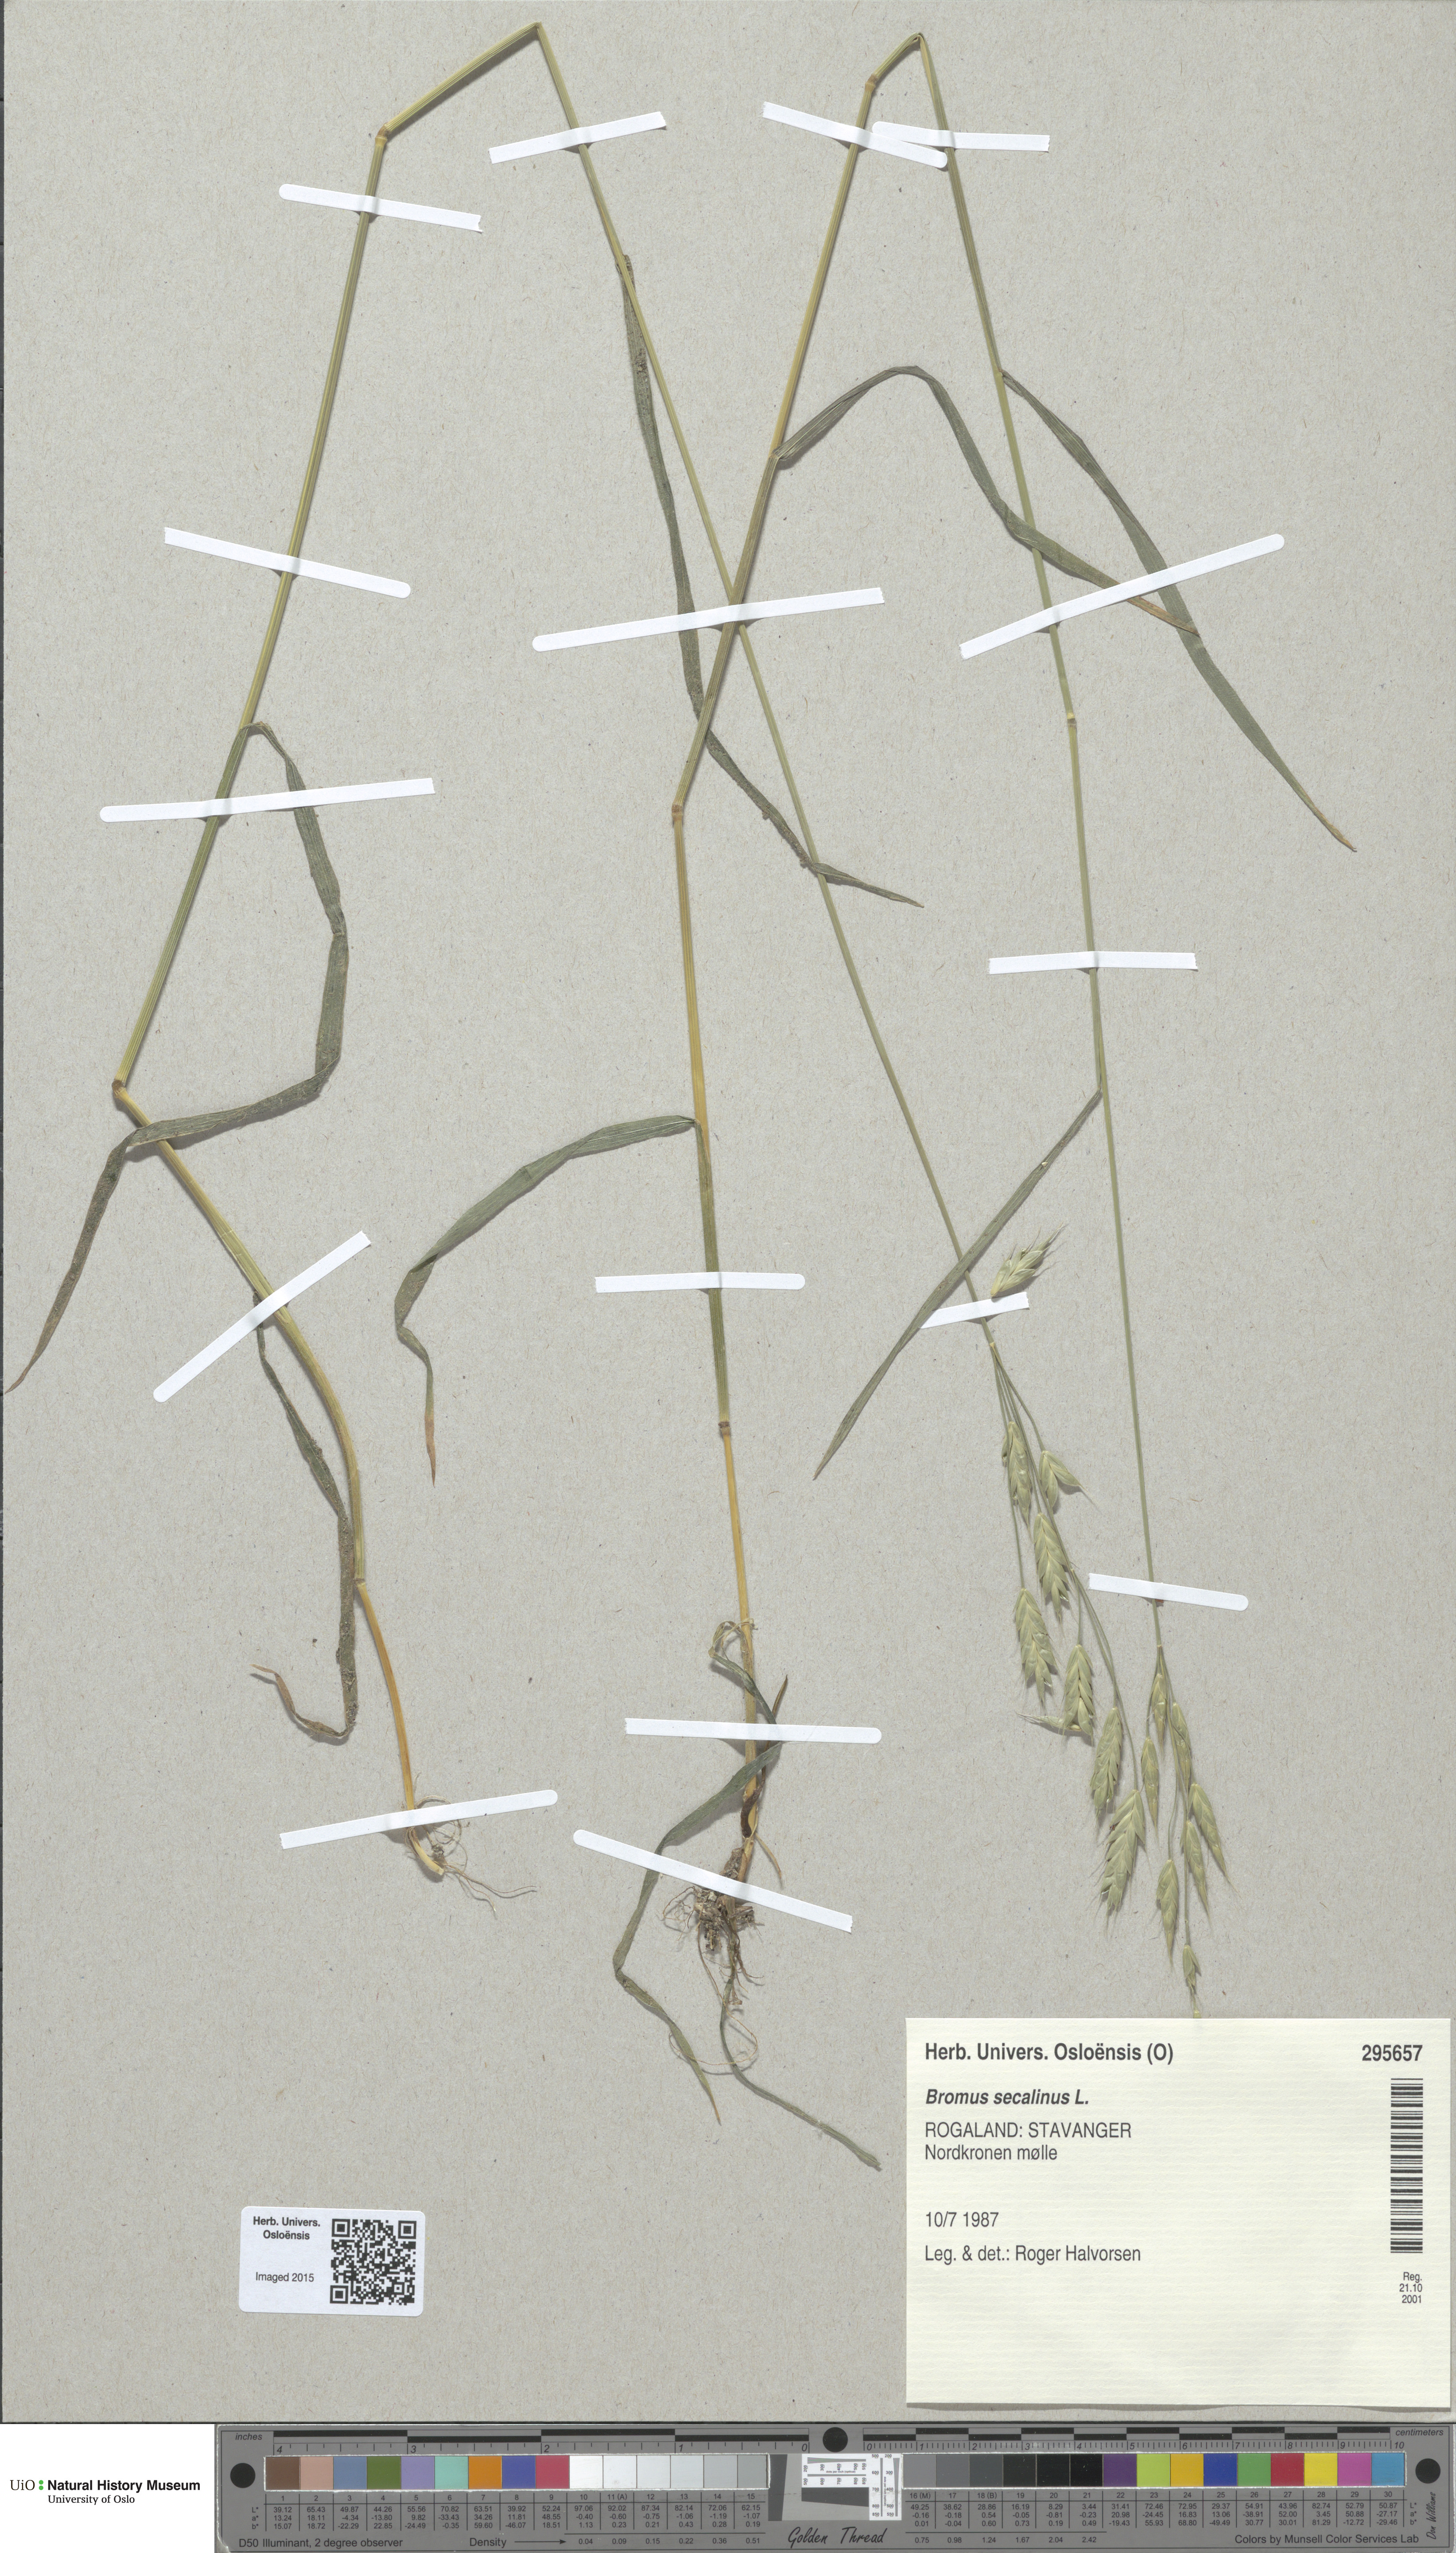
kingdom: Plantae
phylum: Tracheophyta
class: Liliopsida
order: Poales
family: Poaceae
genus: Bromus
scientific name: Bromus secalinus
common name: Rye brome
